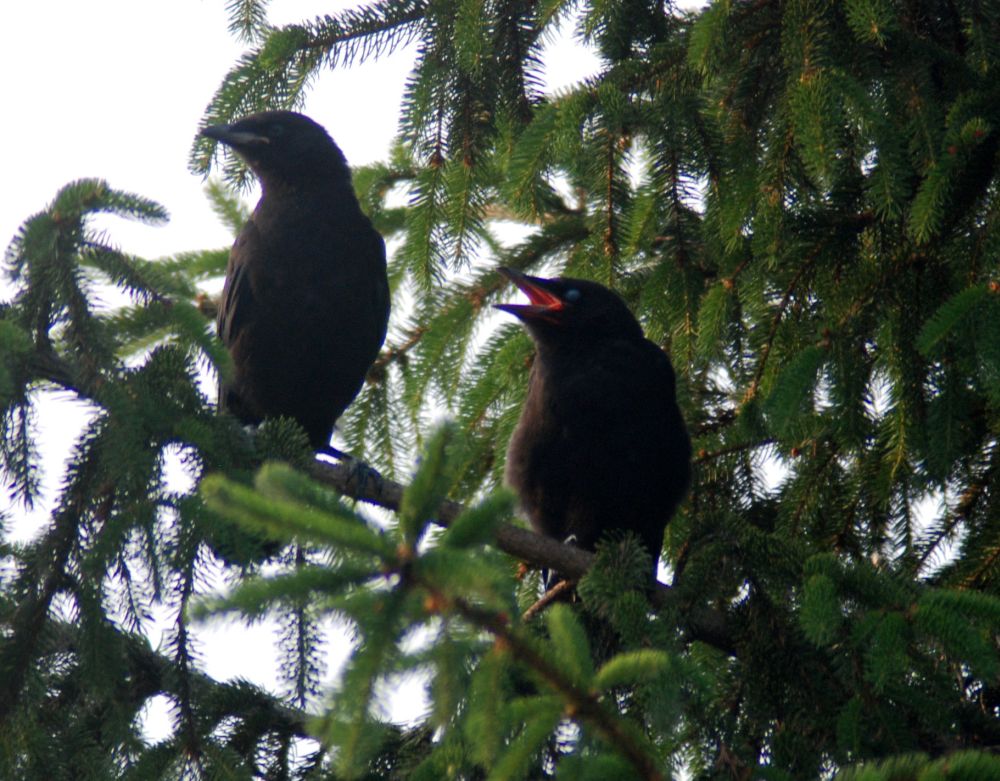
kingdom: Animalia
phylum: Chordata
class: Aves
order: Passeriformes
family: Corvidae
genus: Corvus
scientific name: Corvus brachyrhynchos
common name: American crow
